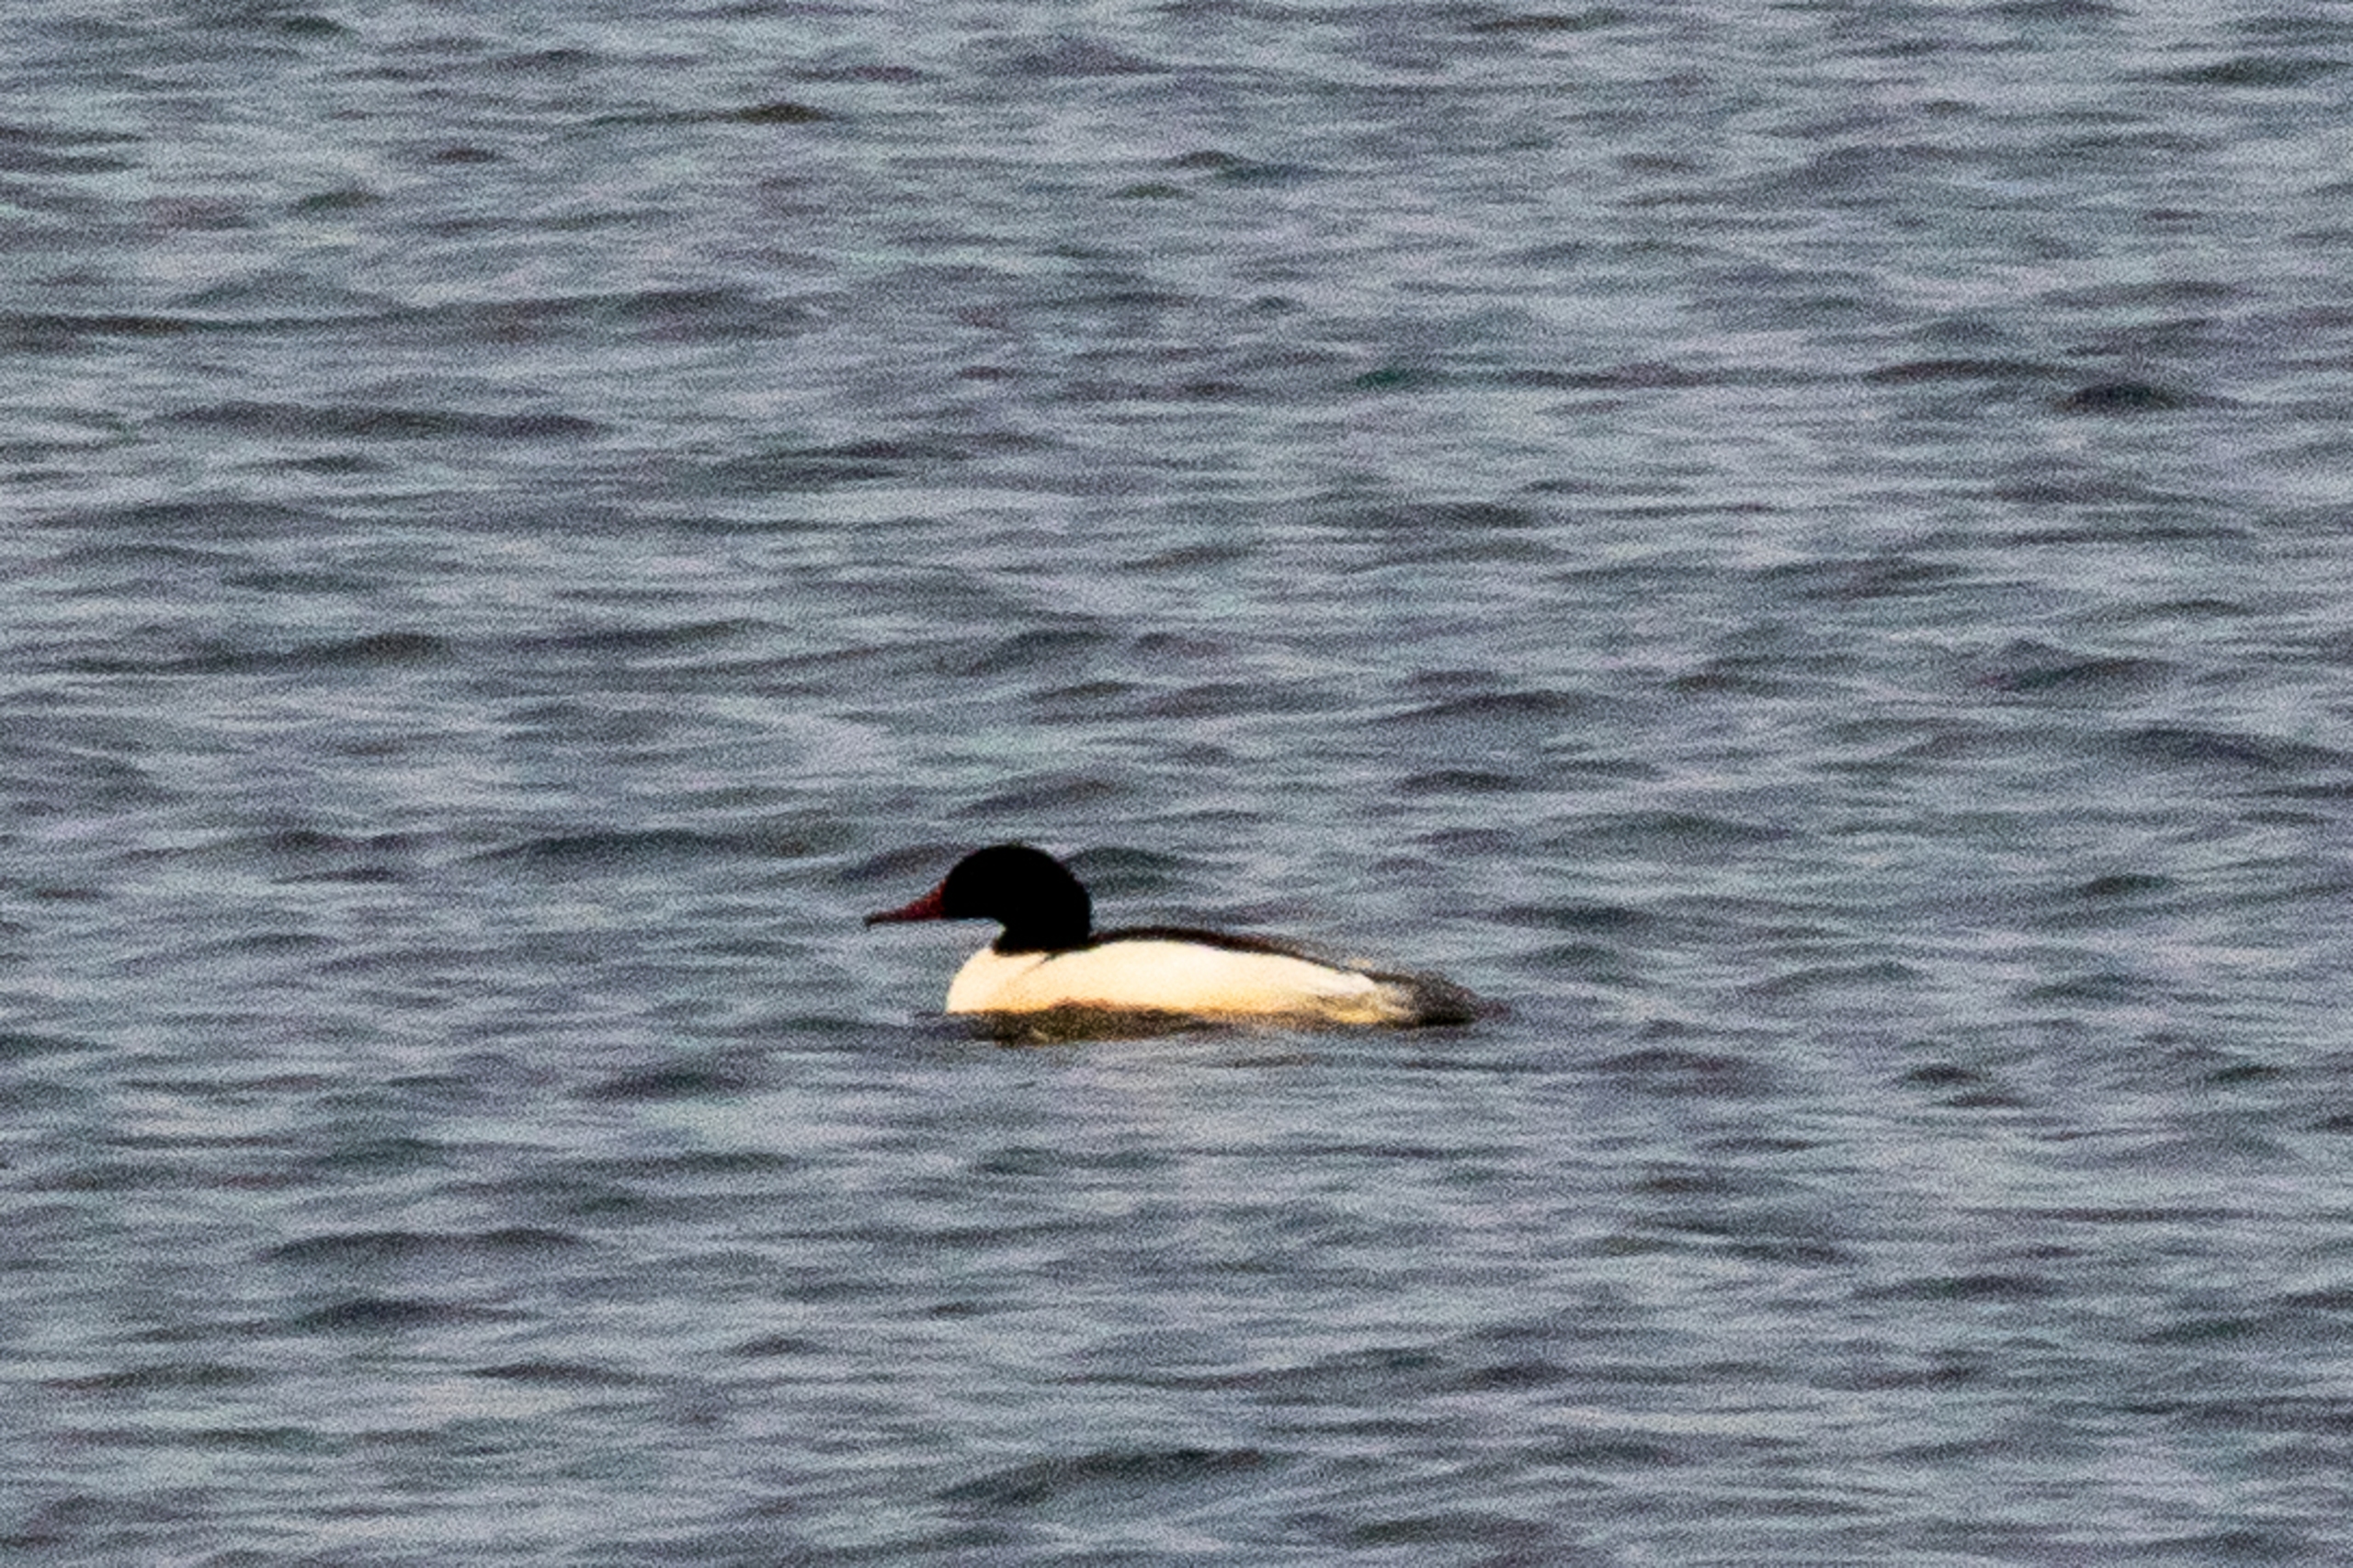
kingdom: Animalia
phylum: Chordata
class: Aves
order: Anseriformes
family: Anatidae
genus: Mergus
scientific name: Mergus merganser
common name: Stor skallesluger
